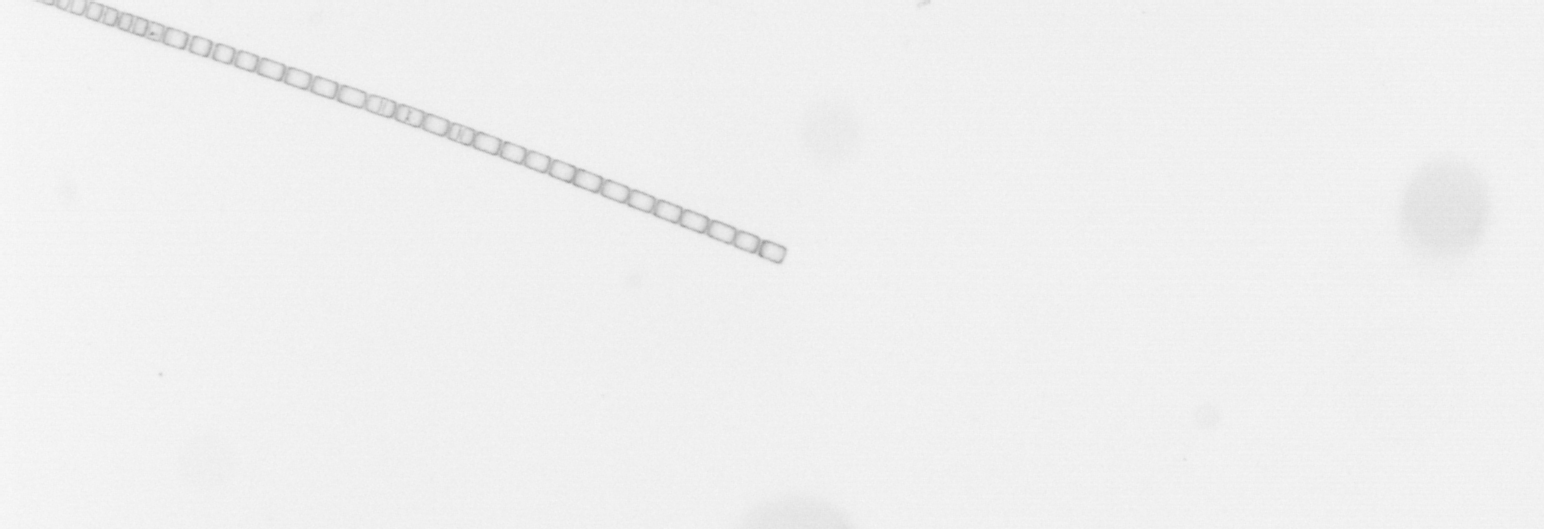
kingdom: Chromista
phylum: Ochrophyta
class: Bacillariophyceae
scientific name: Bacillariophyceae
